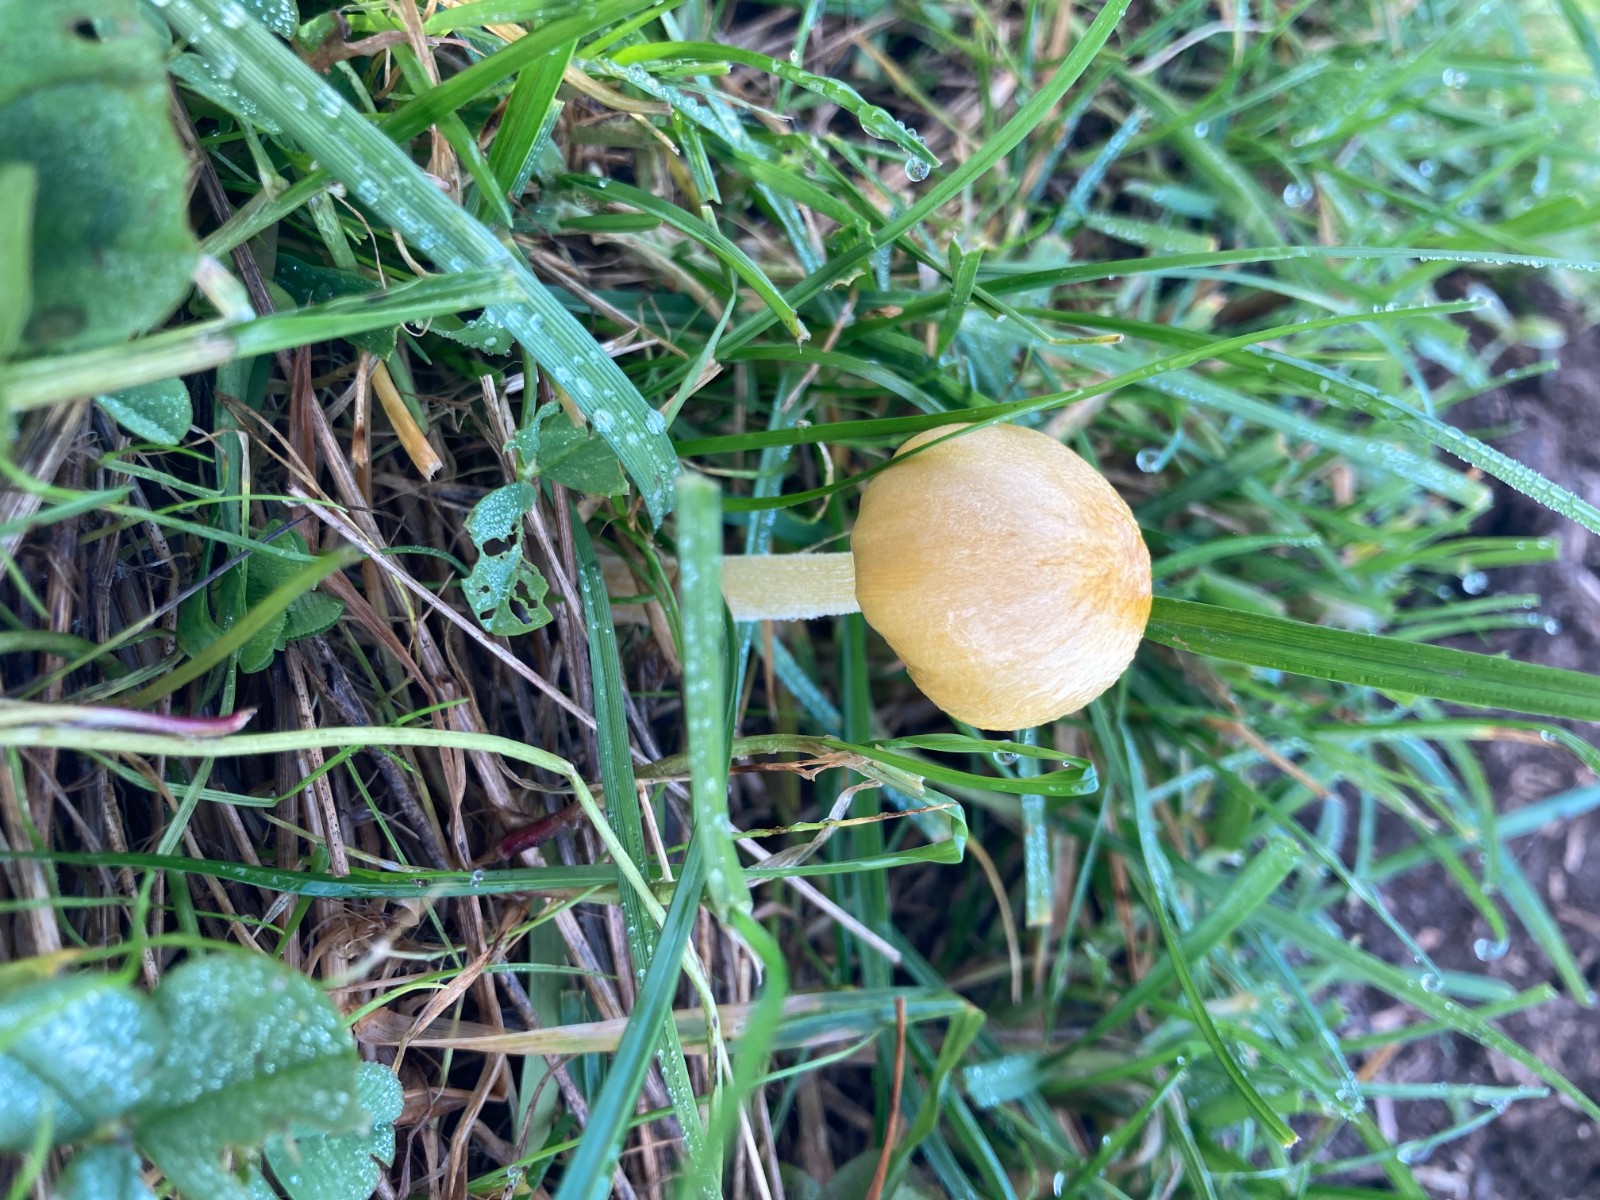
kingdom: Fungi
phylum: Basidiomycota
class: Agaricomycetes
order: Agaricales
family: Bolbitiaceae
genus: Bolbitius
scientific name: Bolbitius titubans
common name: almindelig gulhat
